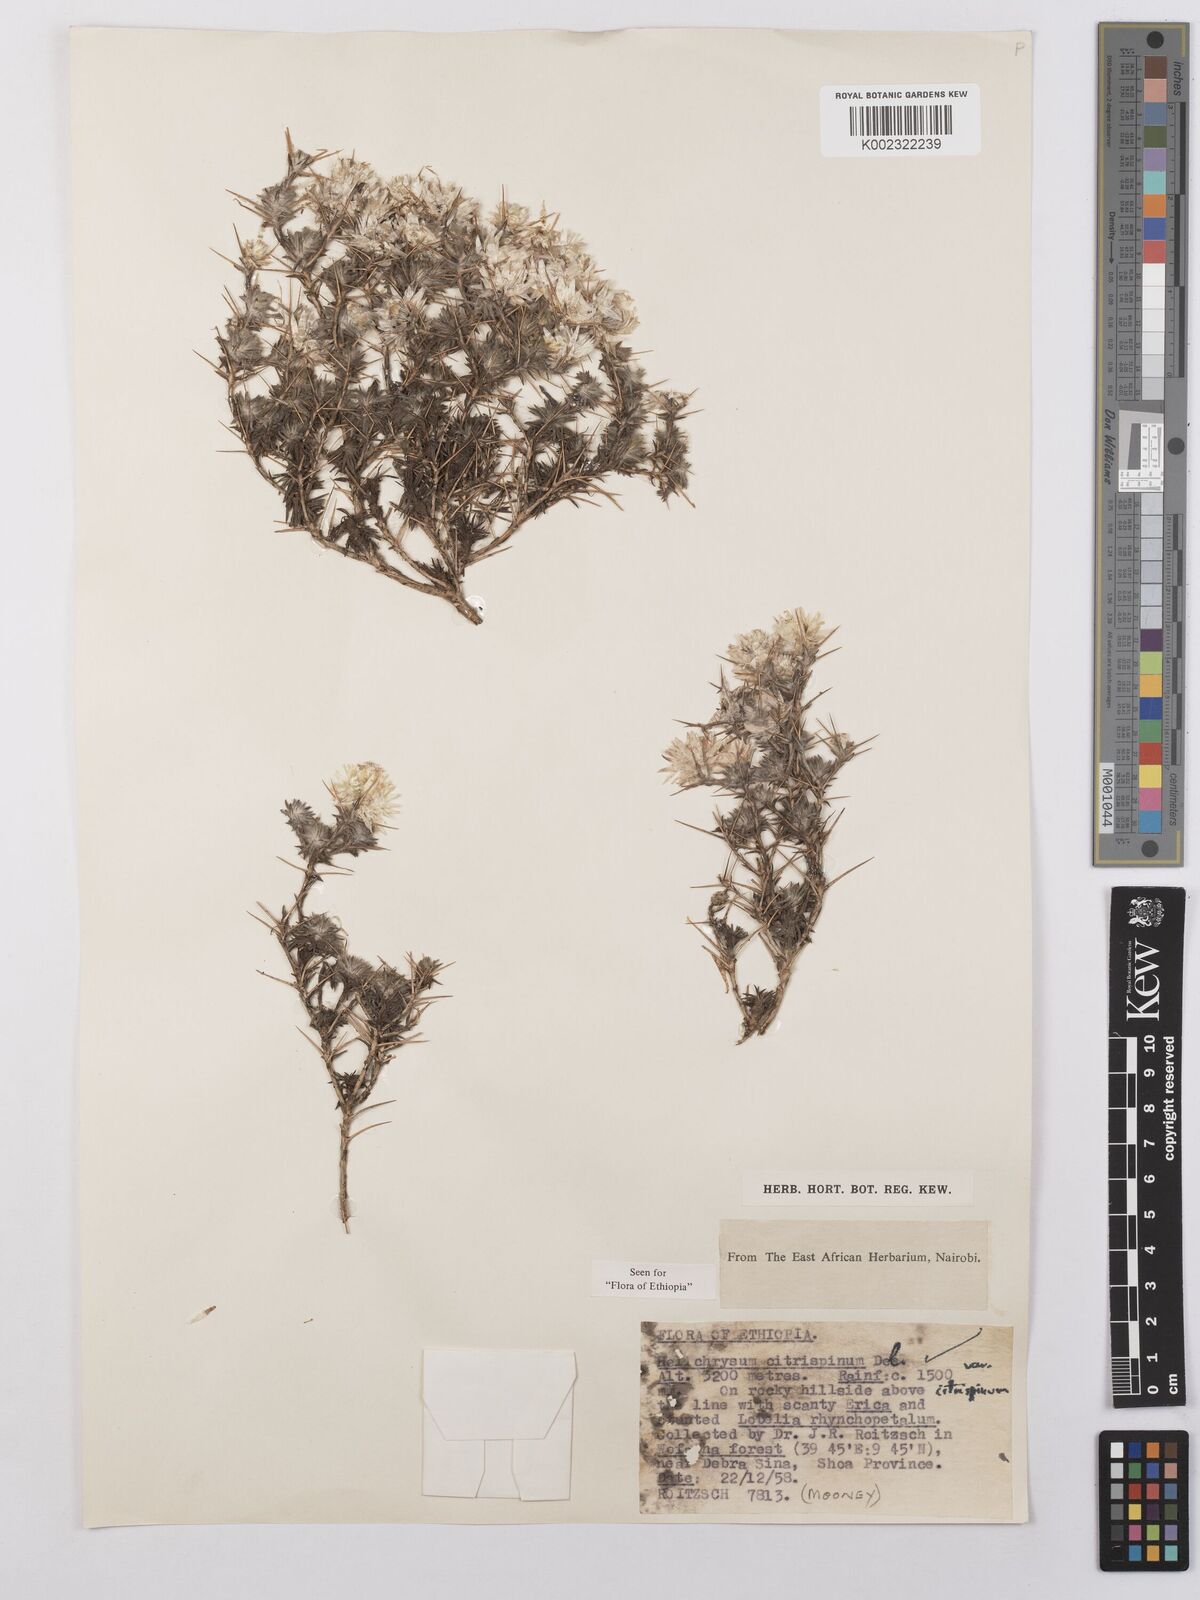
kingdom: Plantae
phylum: Tracheophyta
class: Magnoliopsida
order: Asterales
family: Asteraceae
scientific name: Asteraceae
